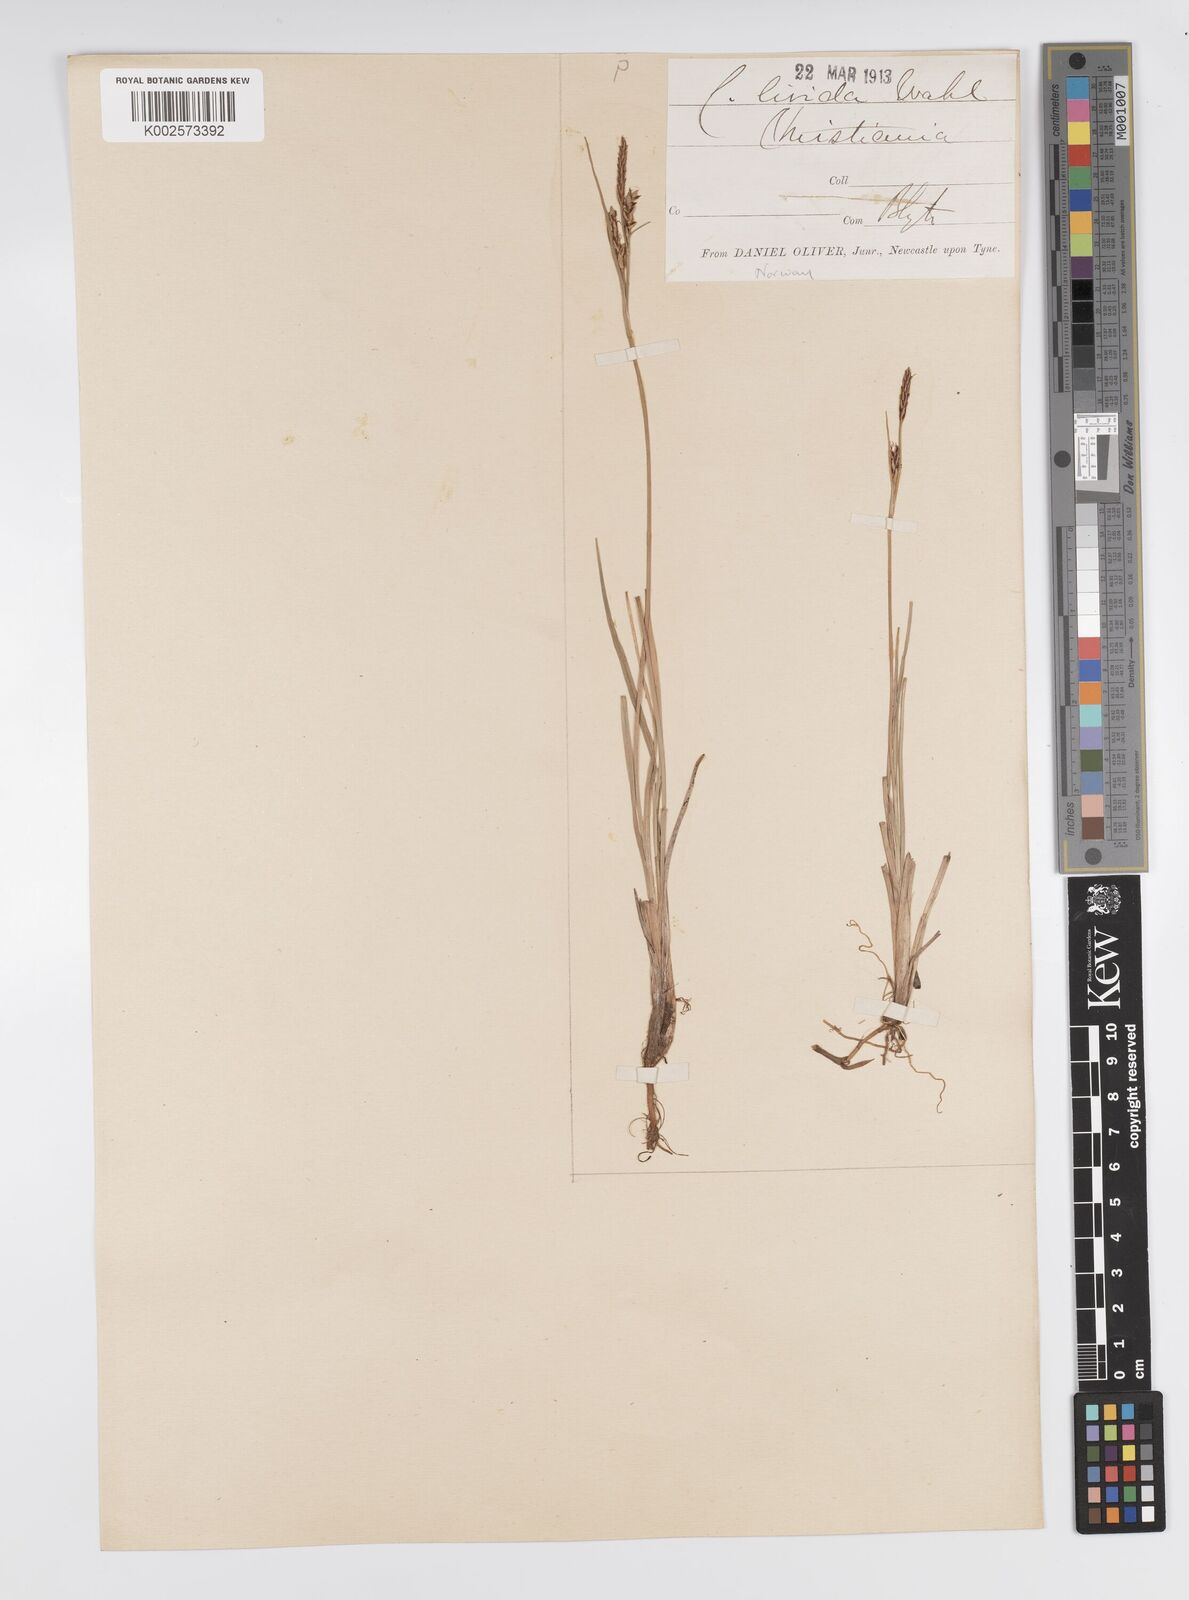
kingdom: Plantae
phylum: Tracheophyta
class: Liliopsida
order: Poales
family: Cyperaceae
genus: Carex
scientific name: Carex livida
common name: Livid sedge
